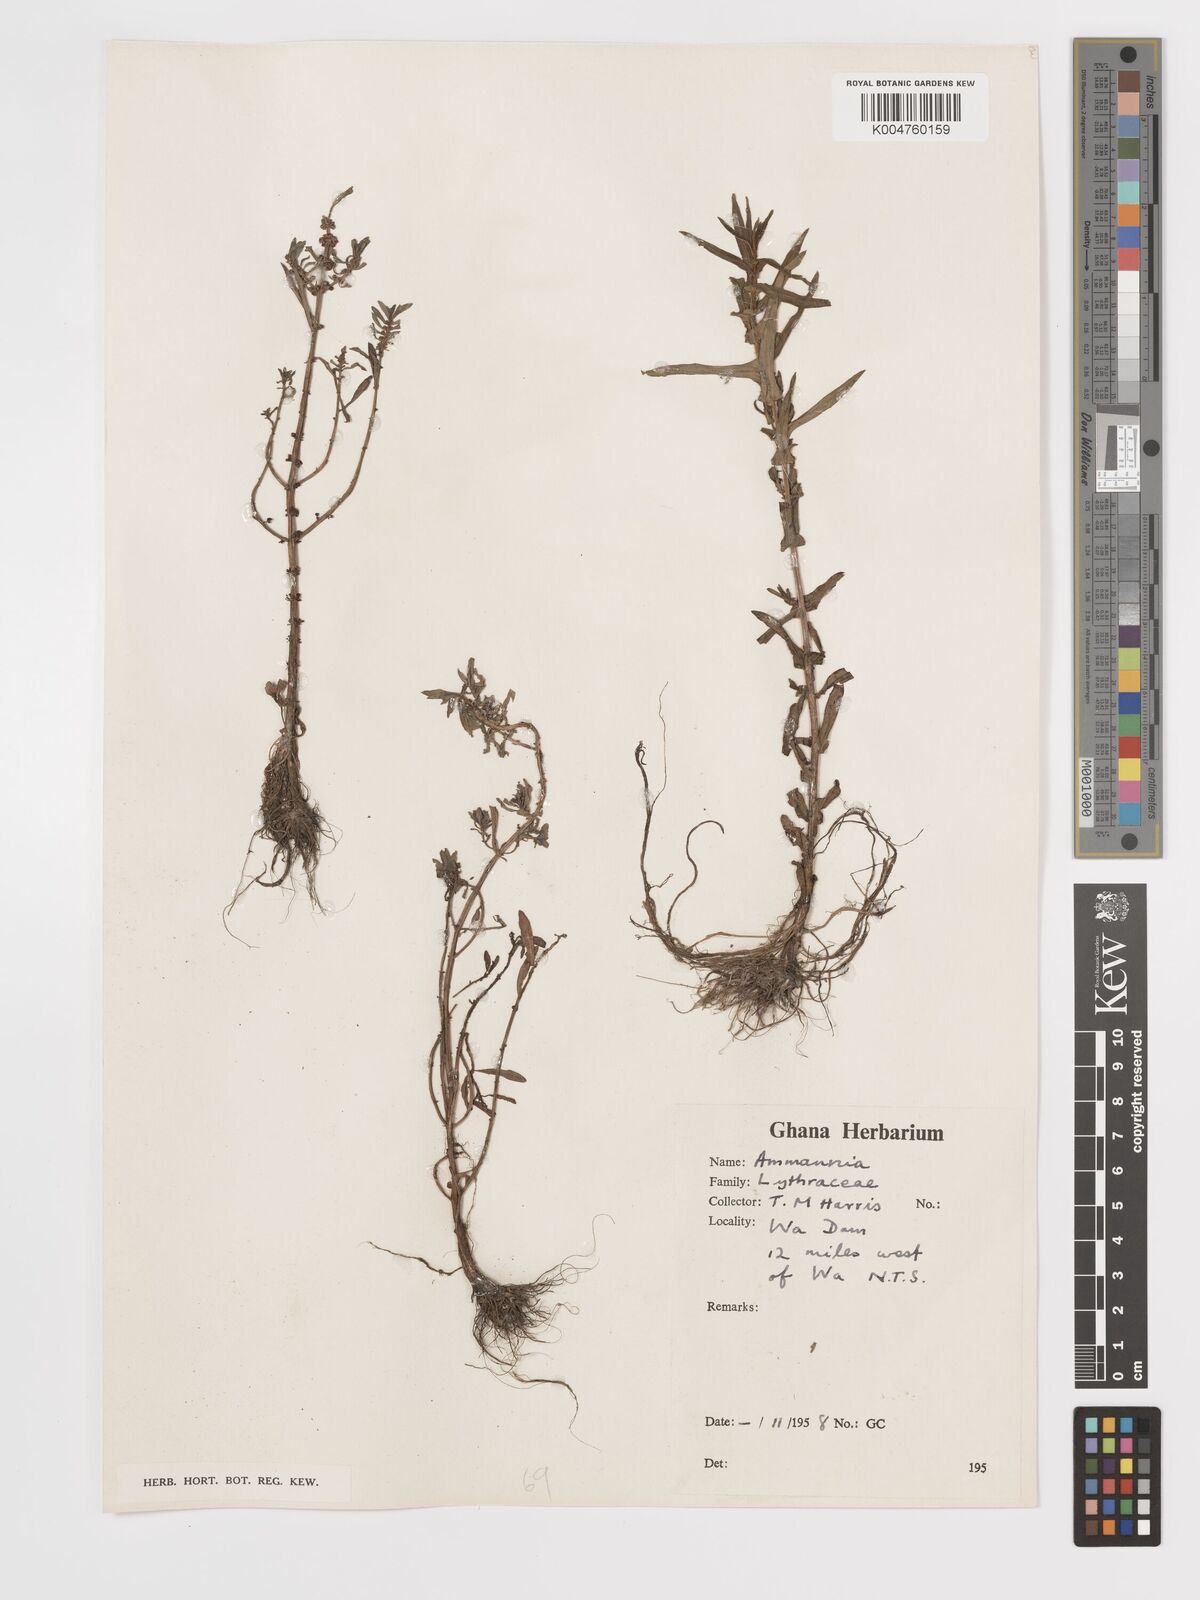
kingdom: Plantae
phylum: Tracheophyta
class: Magnoliopsida
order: Myrtales
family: Lythraceae
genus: Ammannia
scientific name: Ammannia
